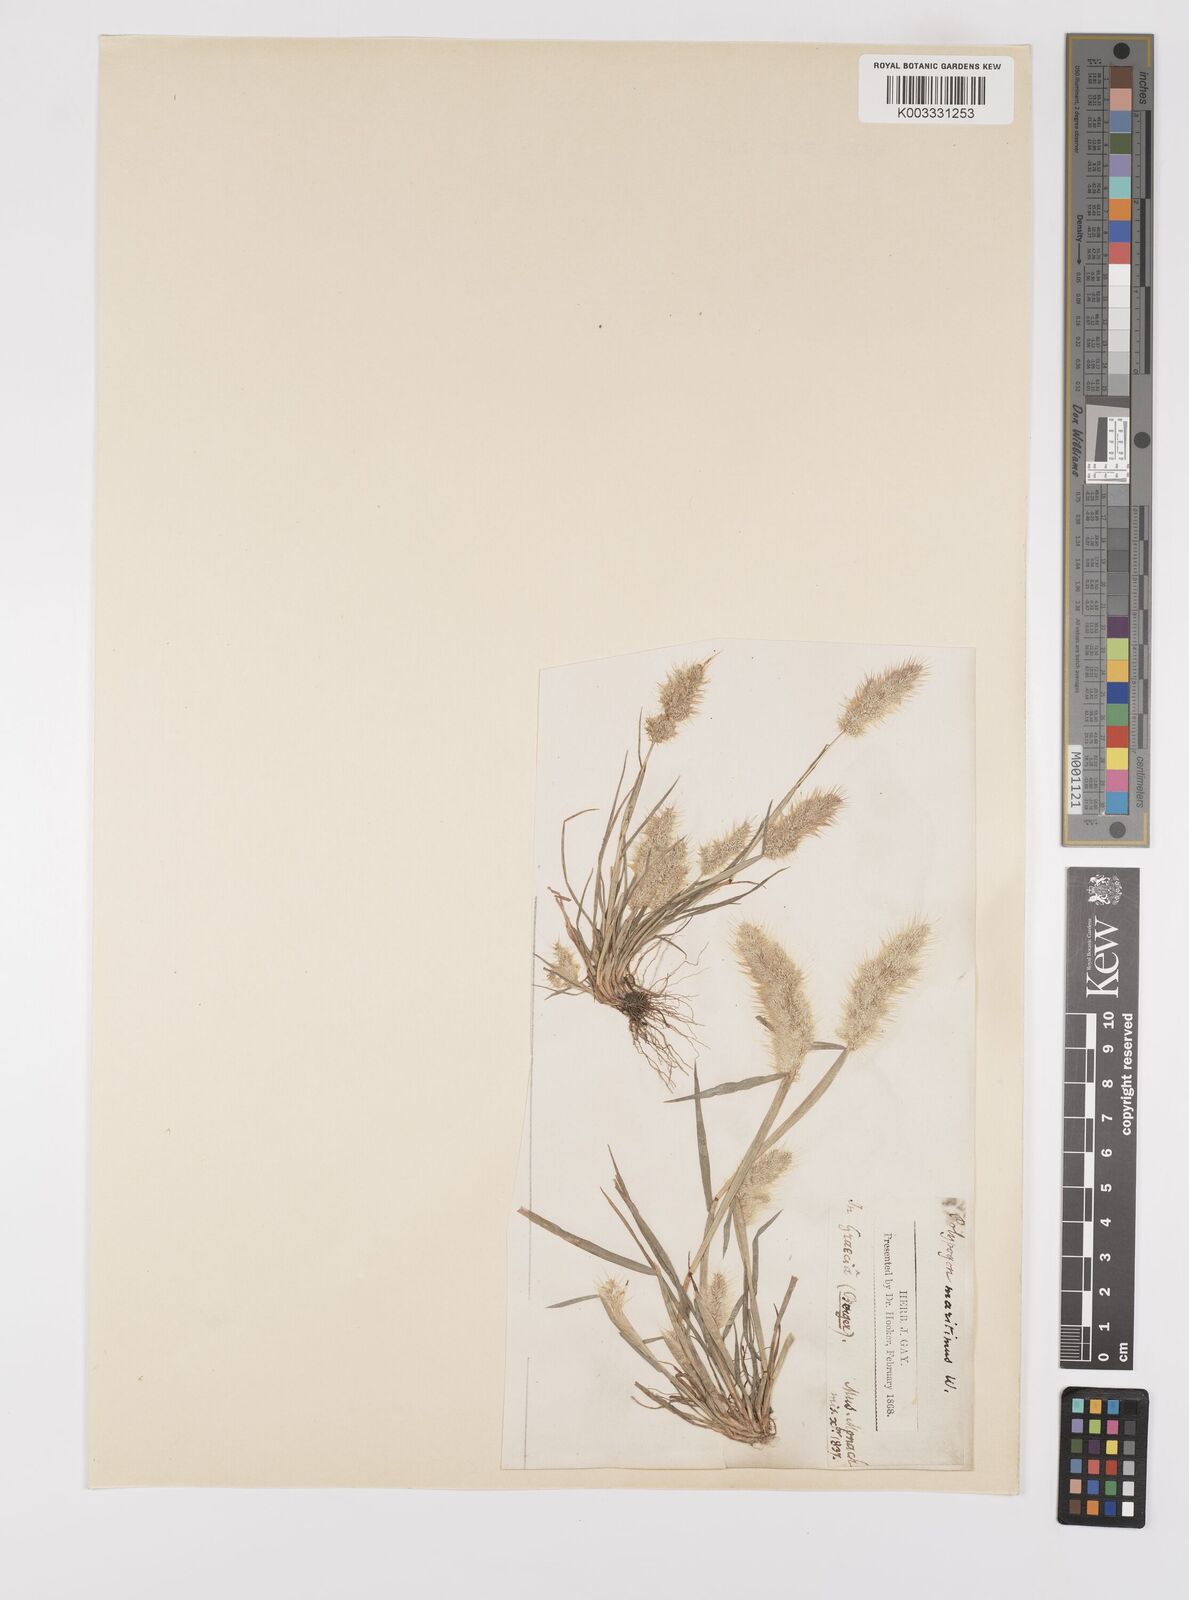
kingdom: Plantae
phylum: Tracheophyta
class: Liliopsida
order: Poales
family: Poaceae
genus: Polypogon
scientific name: Polypogon maritimus
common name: Mediterranean rabbitsfoot grass
